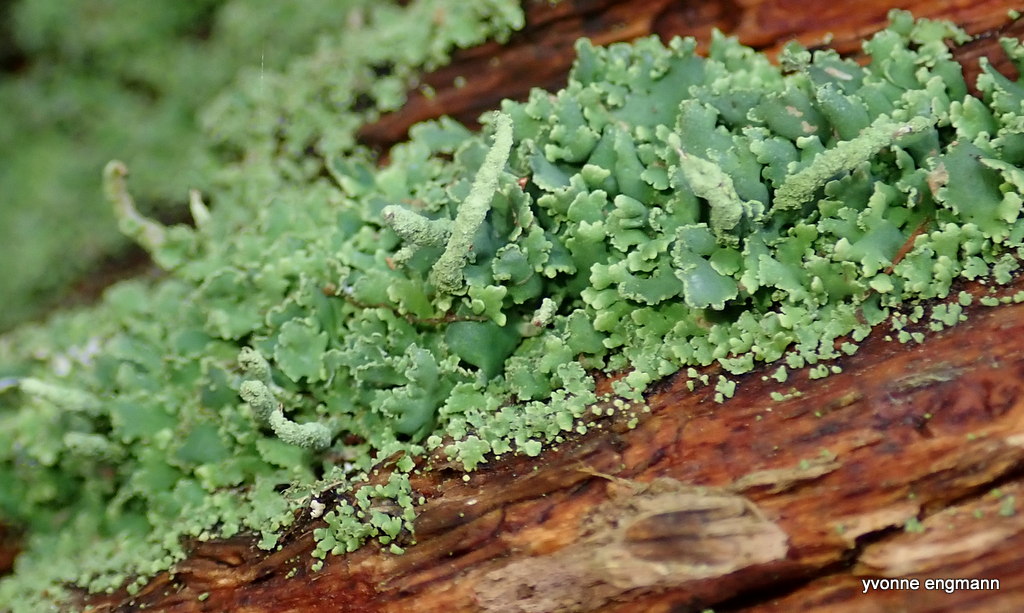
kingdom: Fungi
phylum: Ascomycota
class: Lecanoromycetes
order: Lecanorales
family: Cladoniaceae
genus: Cladonia
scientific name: Cladonia coniocraea
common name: træfods-bægerlav
